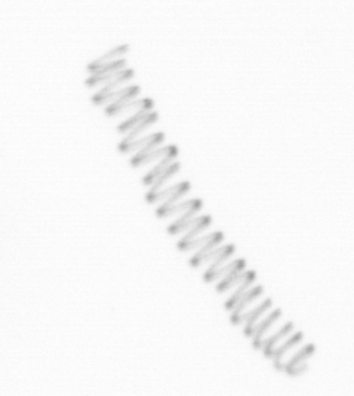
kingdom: Chromista
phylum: Ochrophyta
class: Bacillariophyceae
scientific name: Bacillariophyceae
